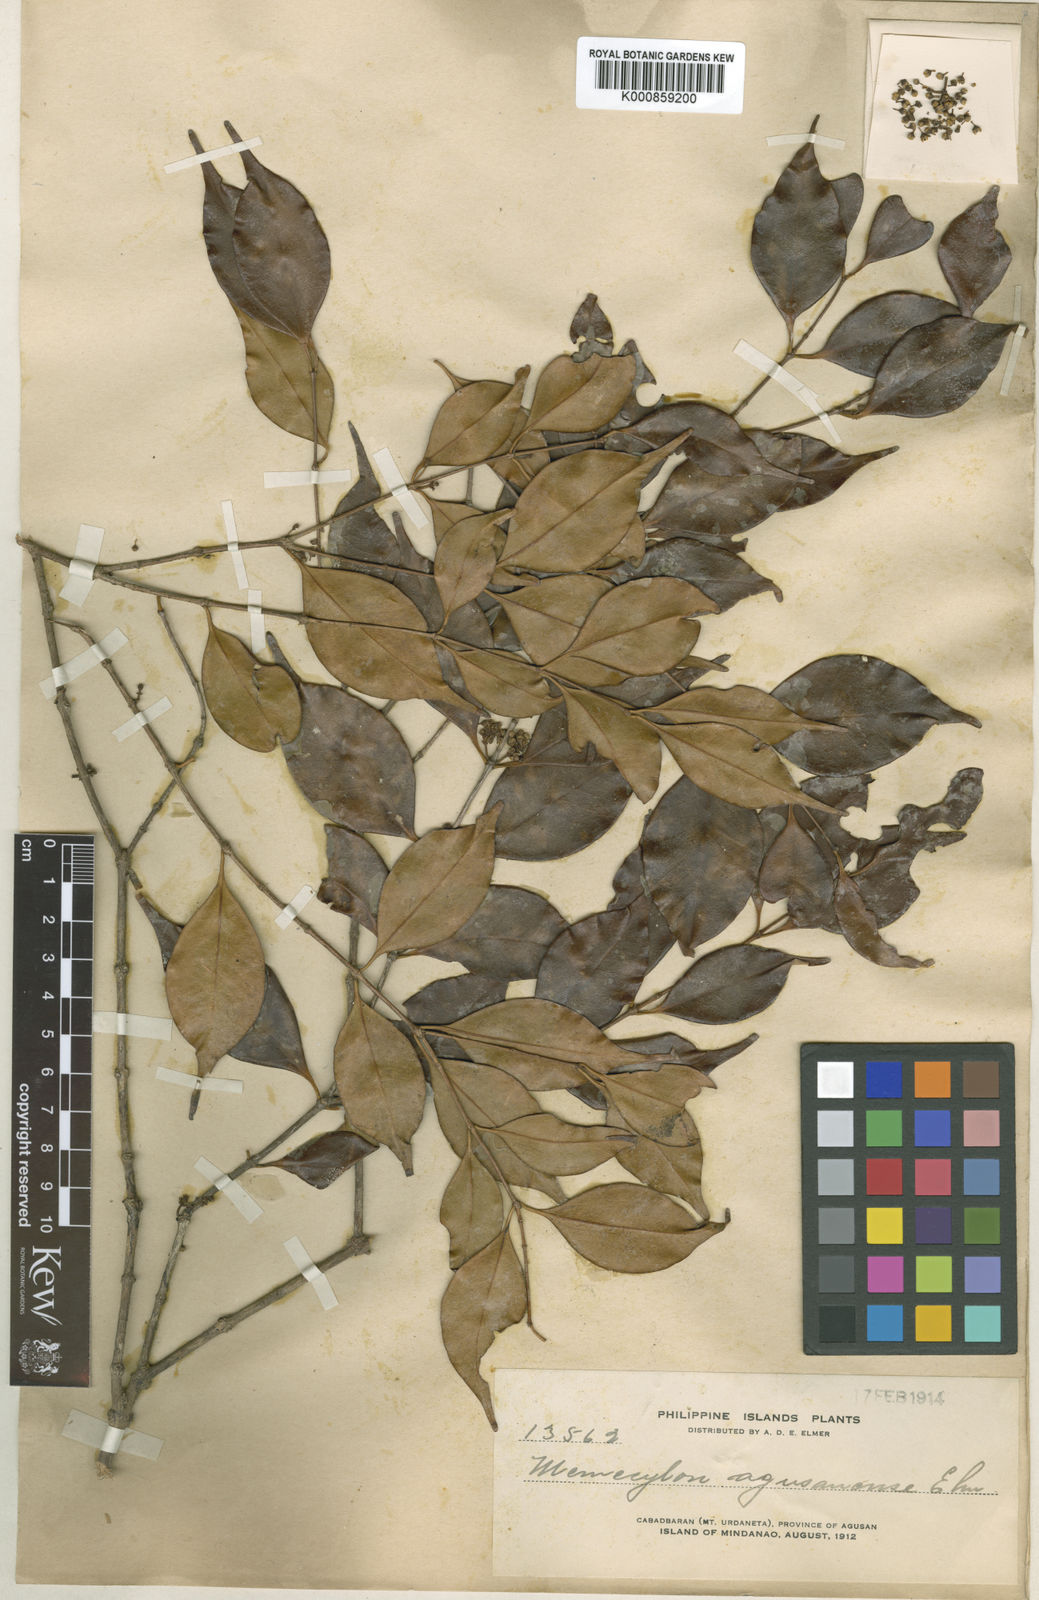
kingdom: Plantae
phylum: Tracheophyta
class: Magnoliopsida
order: Myrtales
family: Melastomataceae
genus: Memecylon
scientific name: Memecylon gitingense
